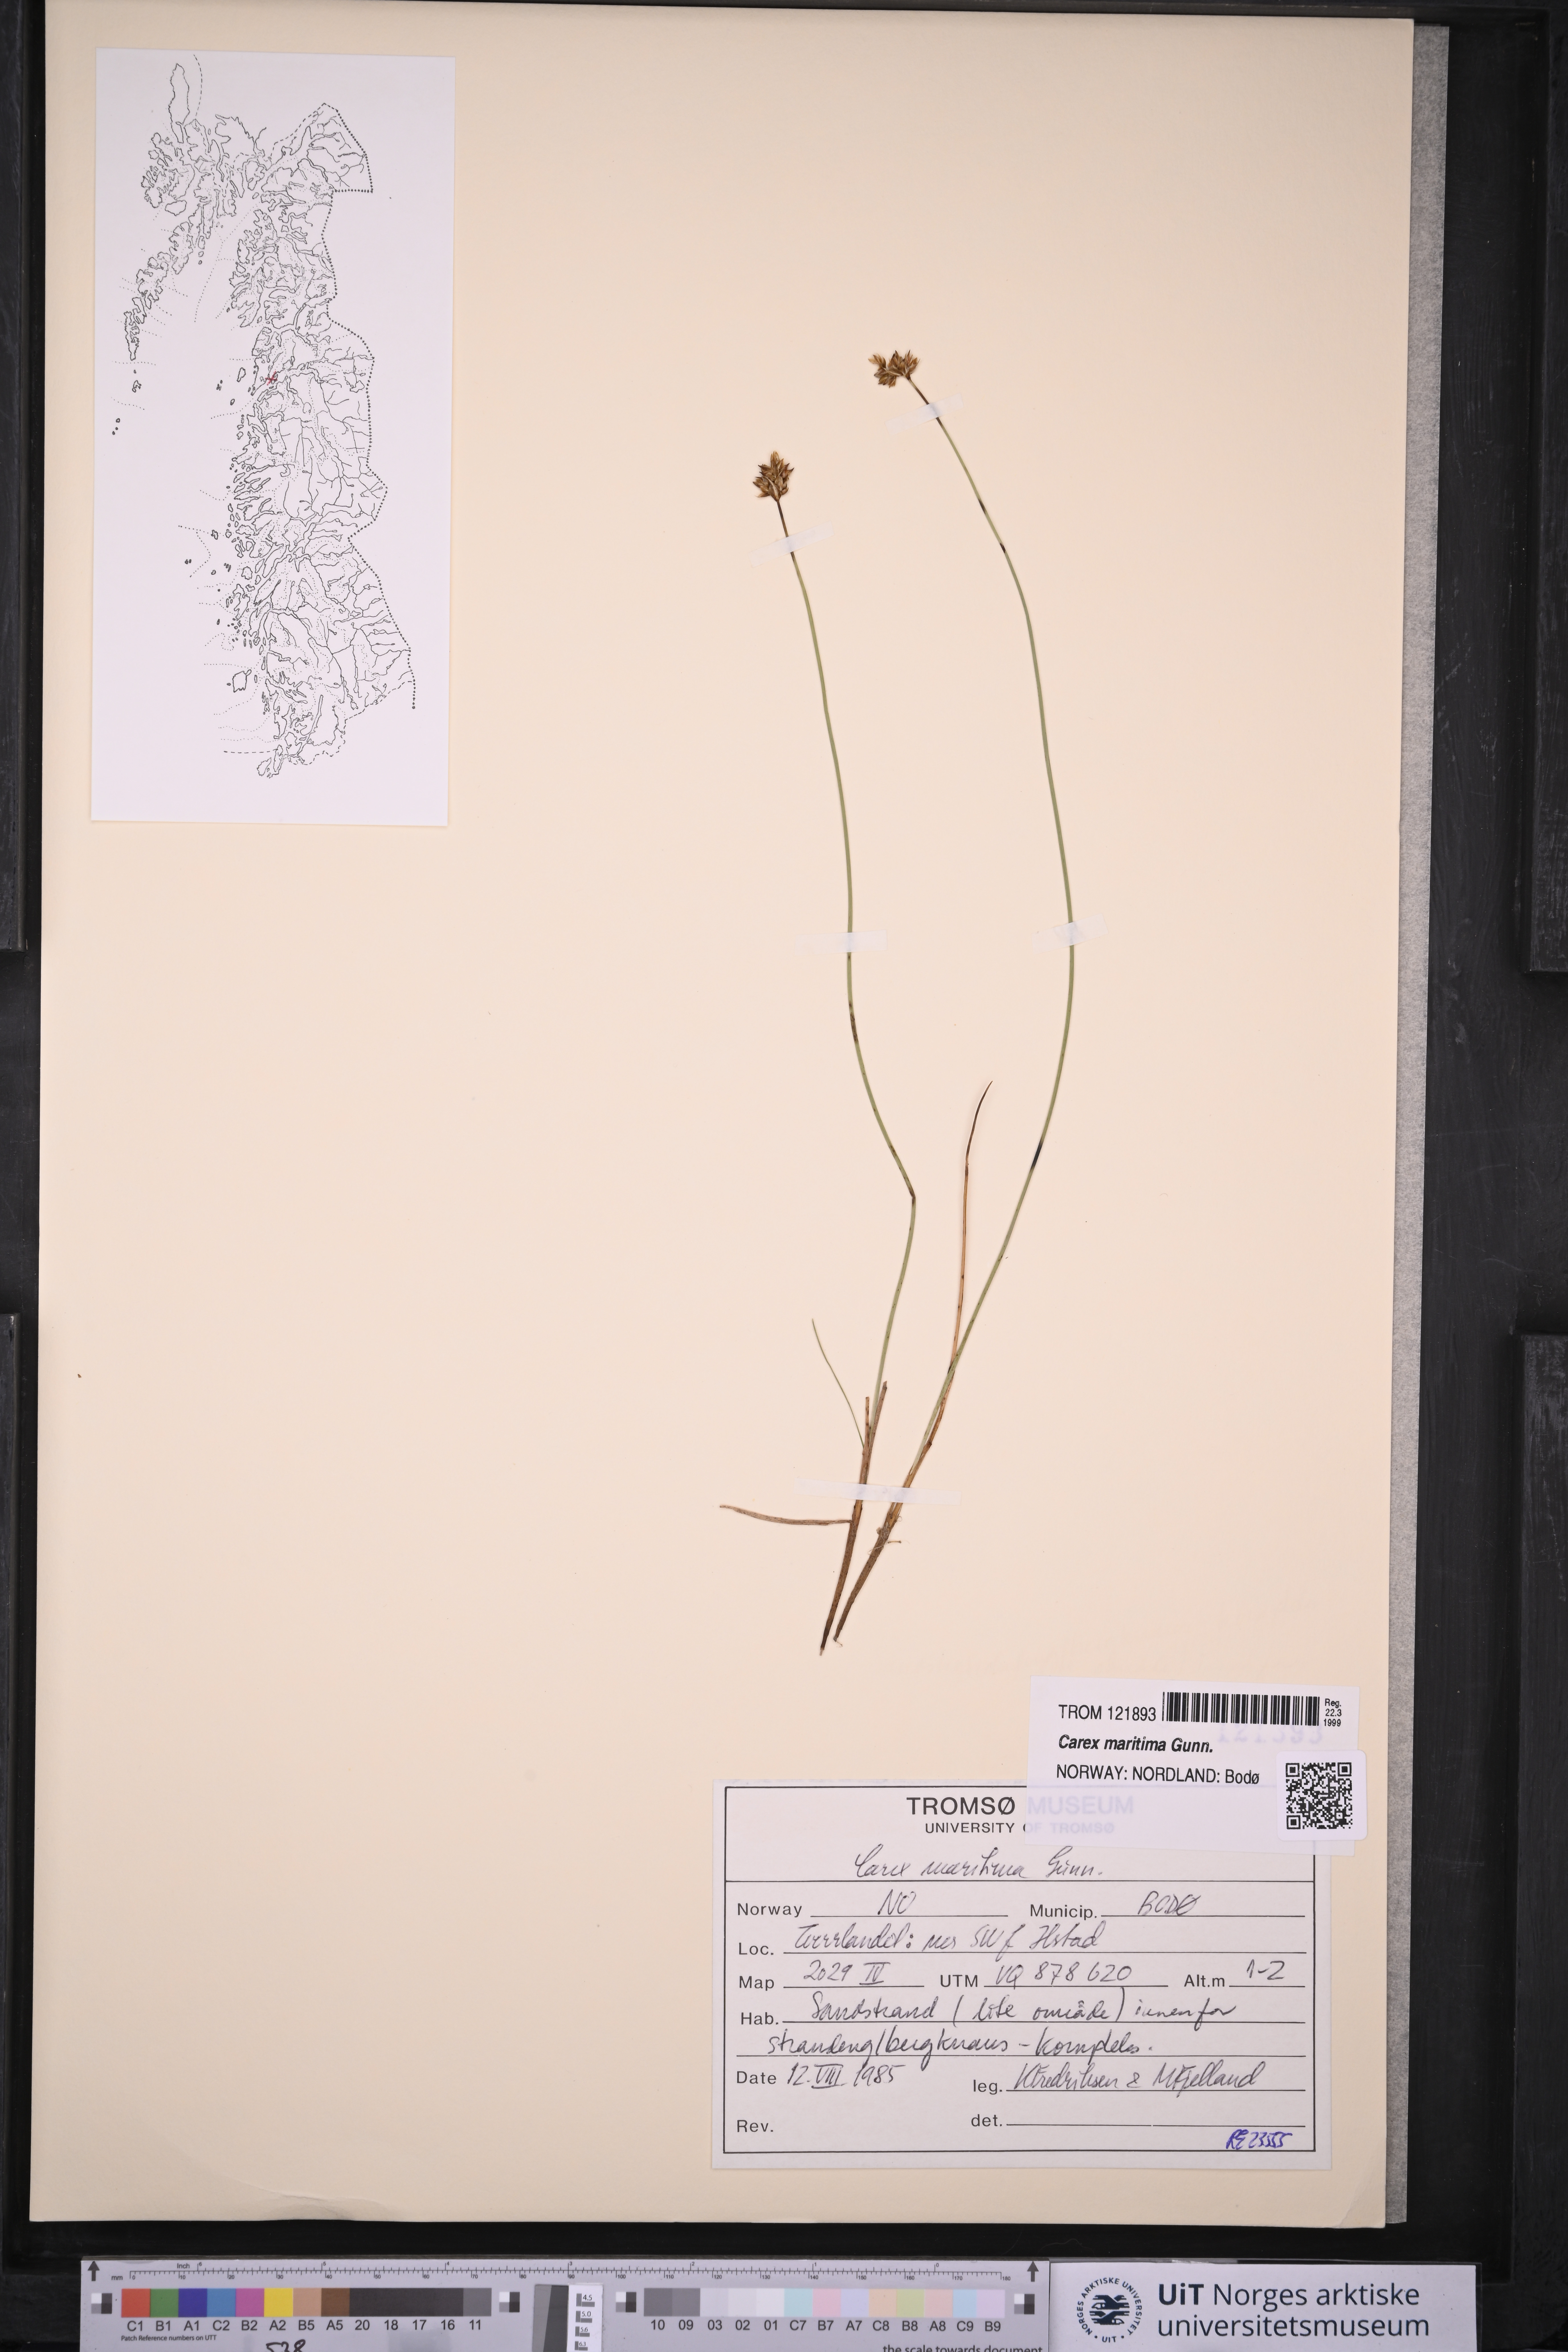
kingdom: Plantae
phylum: Tracheophyta
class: Liliopsida
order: Poales
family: Cyperaceae
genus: Carex
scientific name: Carex maritima
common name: Curved sedge
